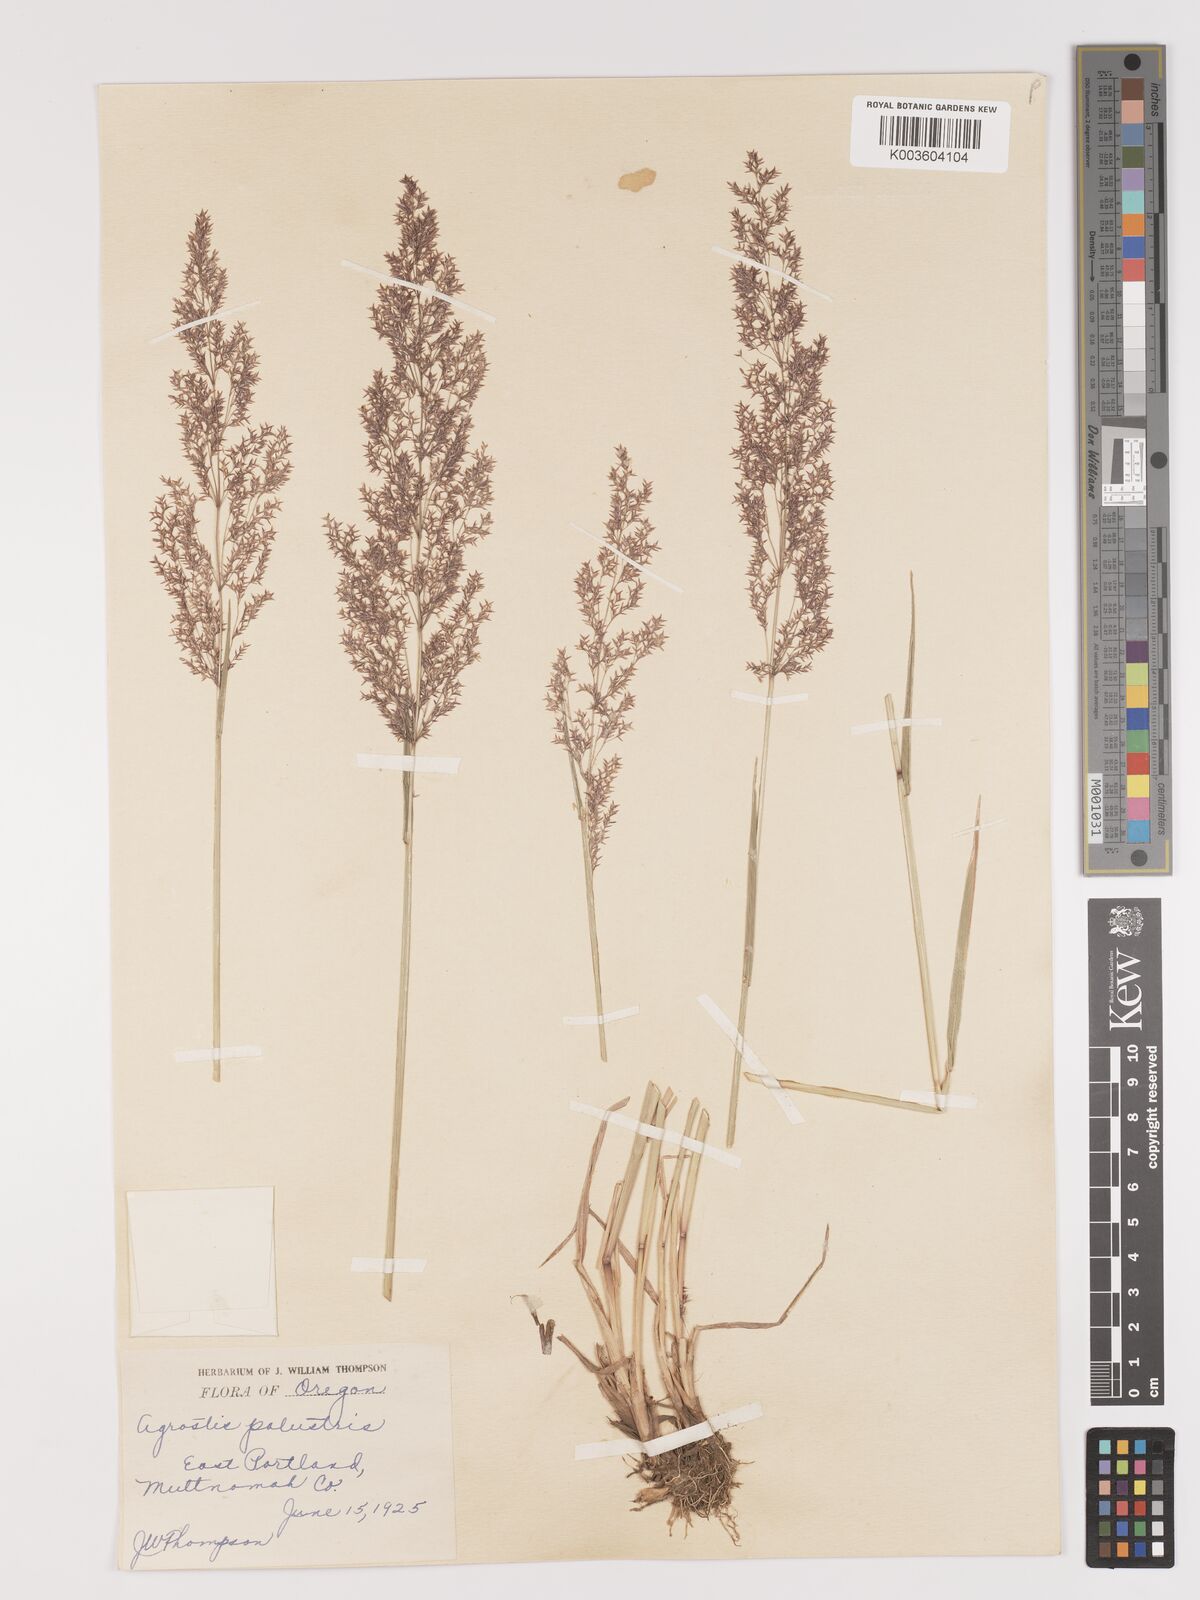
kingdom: Plantae
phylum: Tracheophyta
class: Liliopsida
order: Poales
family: Poaceae
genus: Agrostis
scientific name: Agrostis gigantea
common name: Black bent
